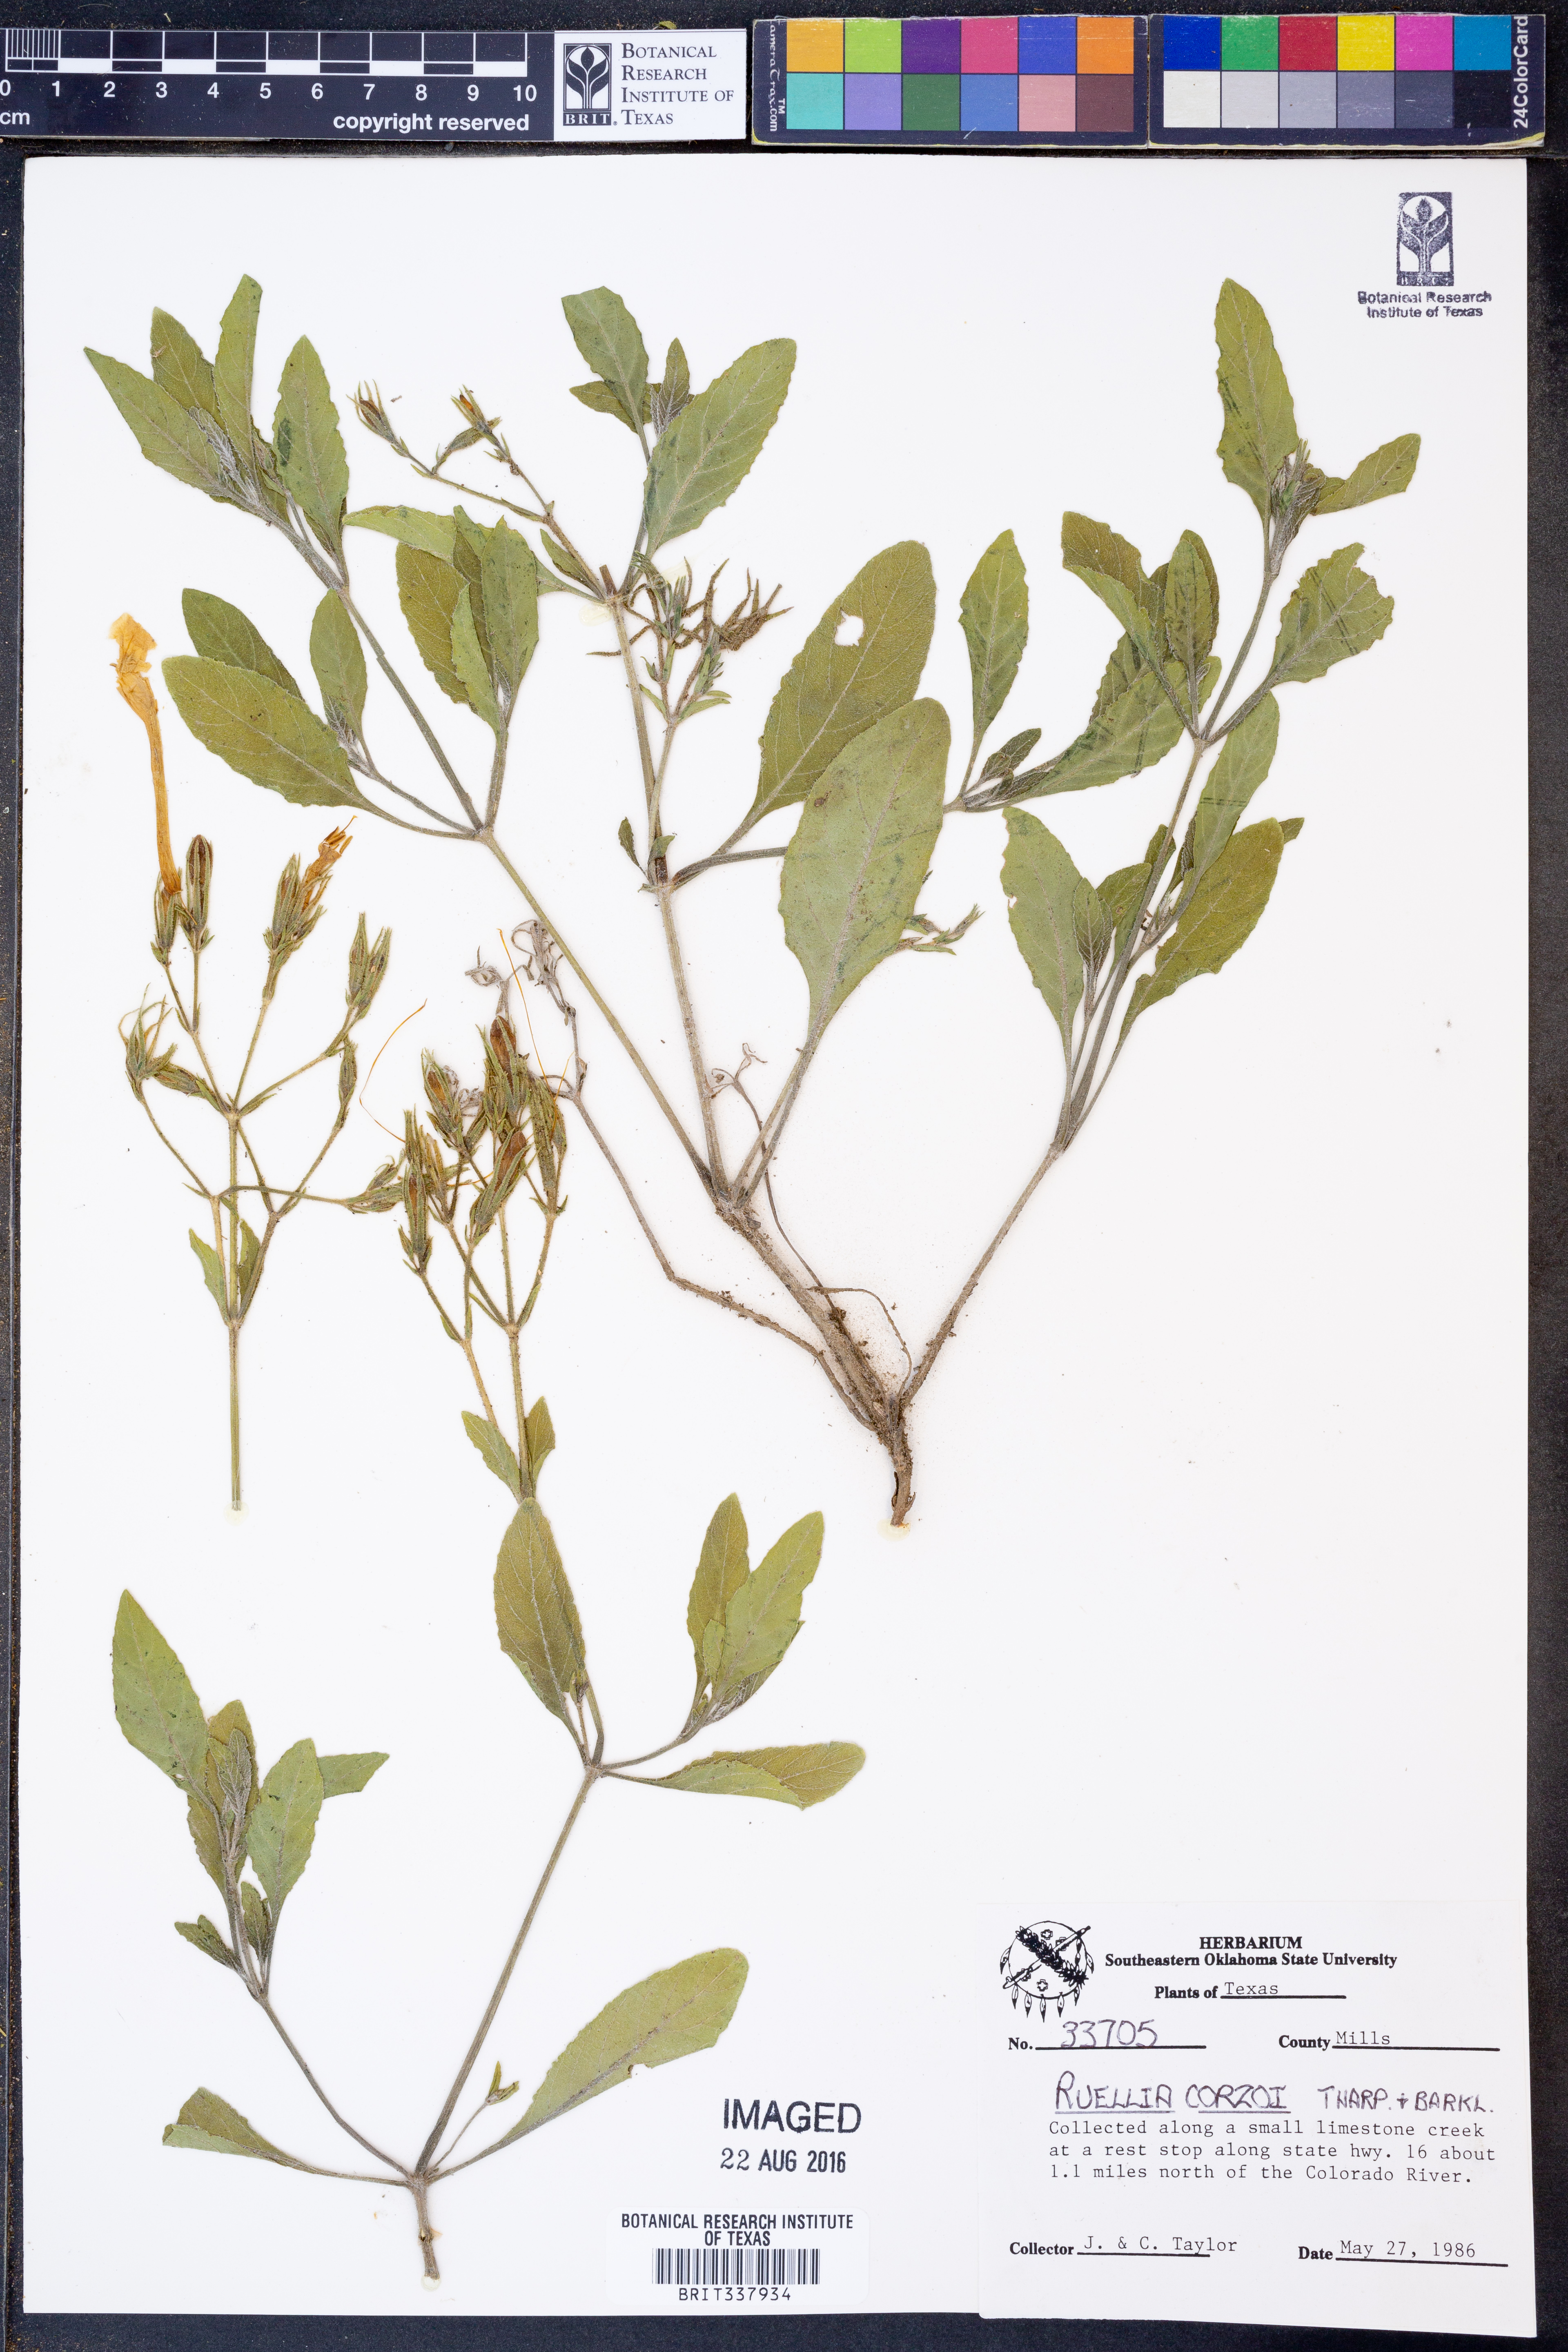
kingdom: Plantae
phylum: Tracheophyta
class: Magnoliopsida
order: Lamiales
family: Acanthaceae
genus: Ruellia
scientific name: Ruellia corzoi
